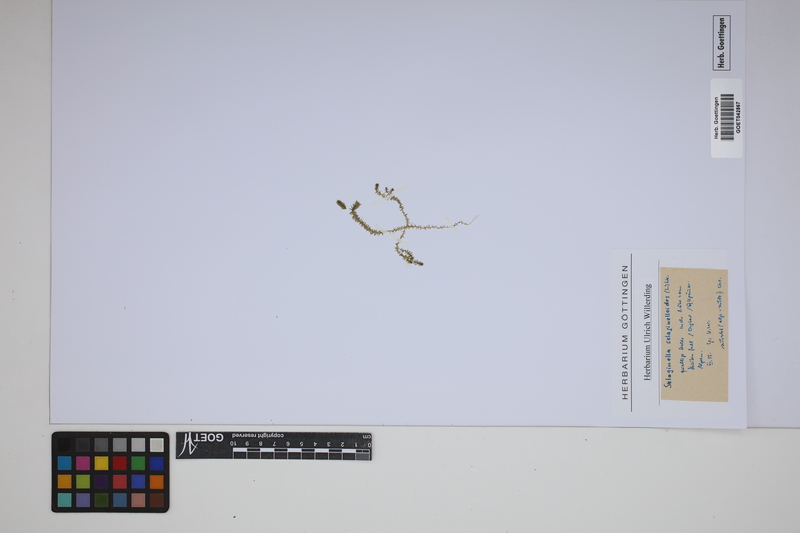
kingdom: Plantae
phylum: Tracheophyta
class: Lycopodiopsida
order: Selaginellales
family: Selaginellaceae
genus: Selaginella
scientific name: Selaginella selaginoides
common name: Prickly mountain-moss
